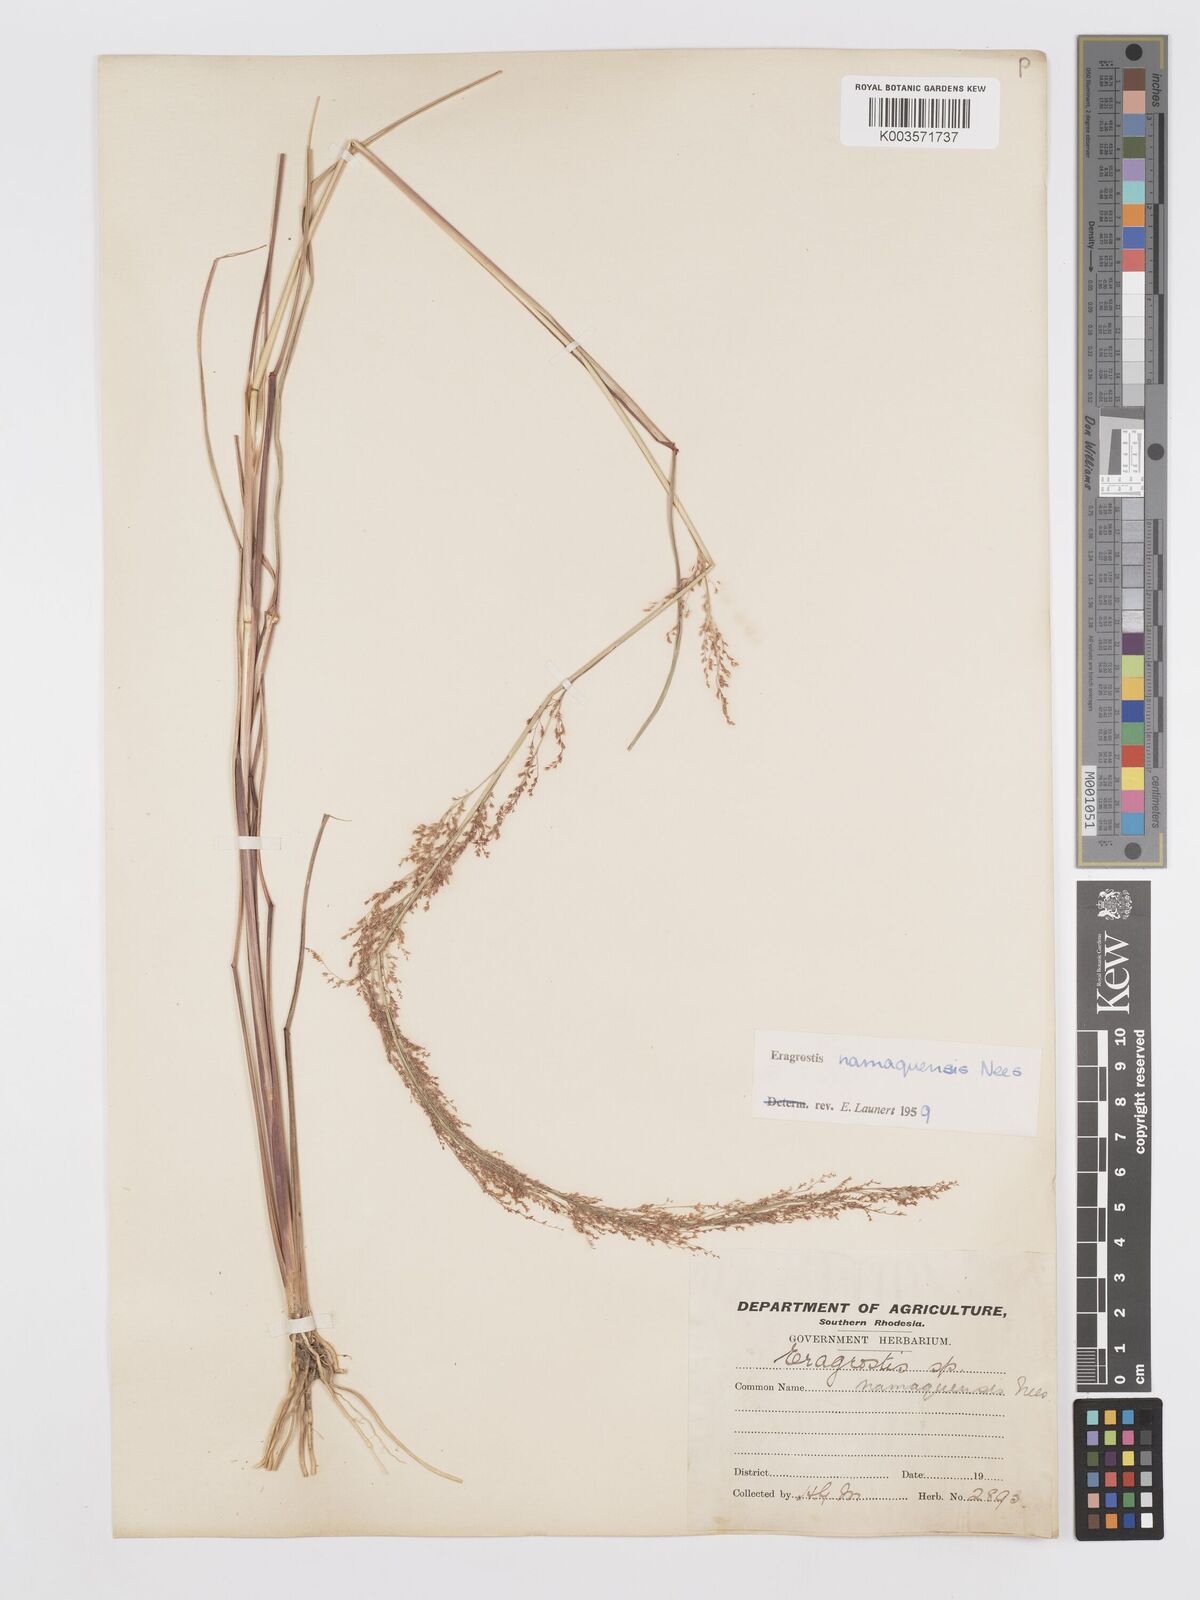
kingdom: Plantae
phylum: Tracheophyta
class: Liliopsida
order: Poales
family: Poaceae
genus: Eragrostis
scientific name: Eragrostis japonica
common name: Pond lovegrass
